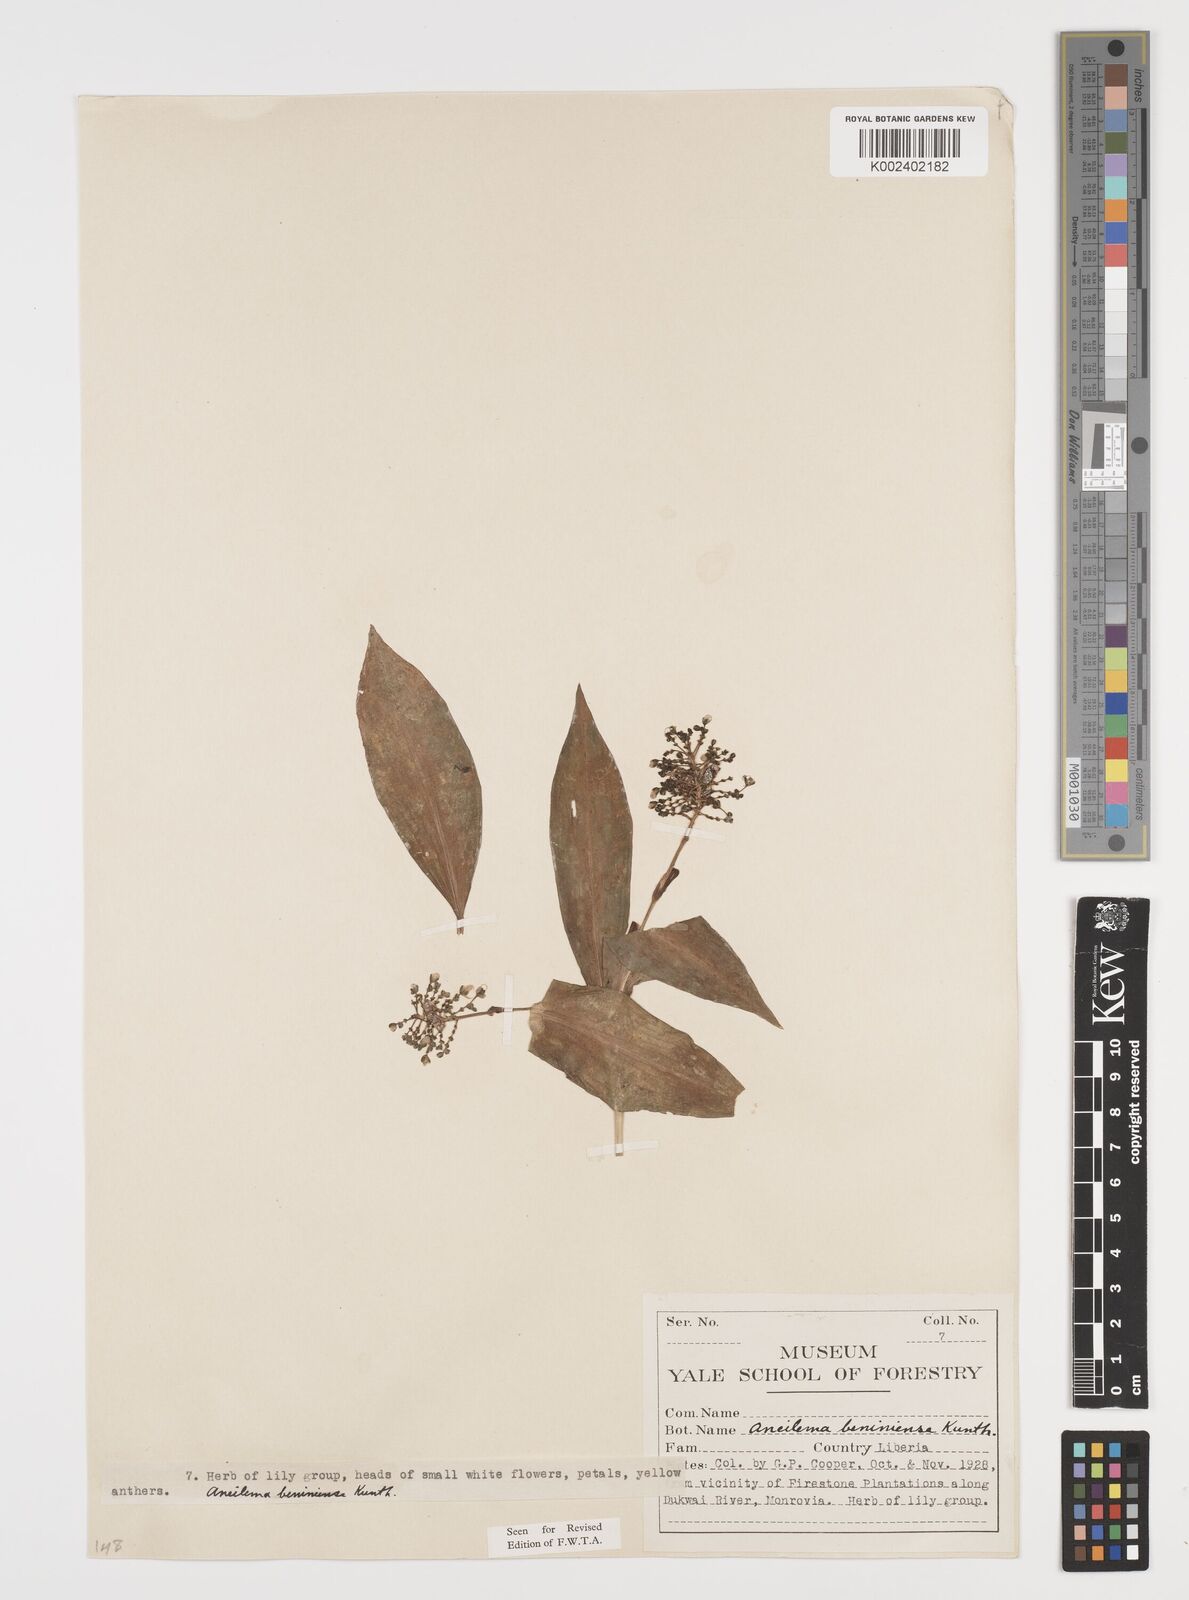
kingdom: Plantae
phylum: Tracheophyta
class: Liliopsida
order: Commelinales
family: Commelinaceae
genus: Aneilema
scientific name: Aneilema beniniense
